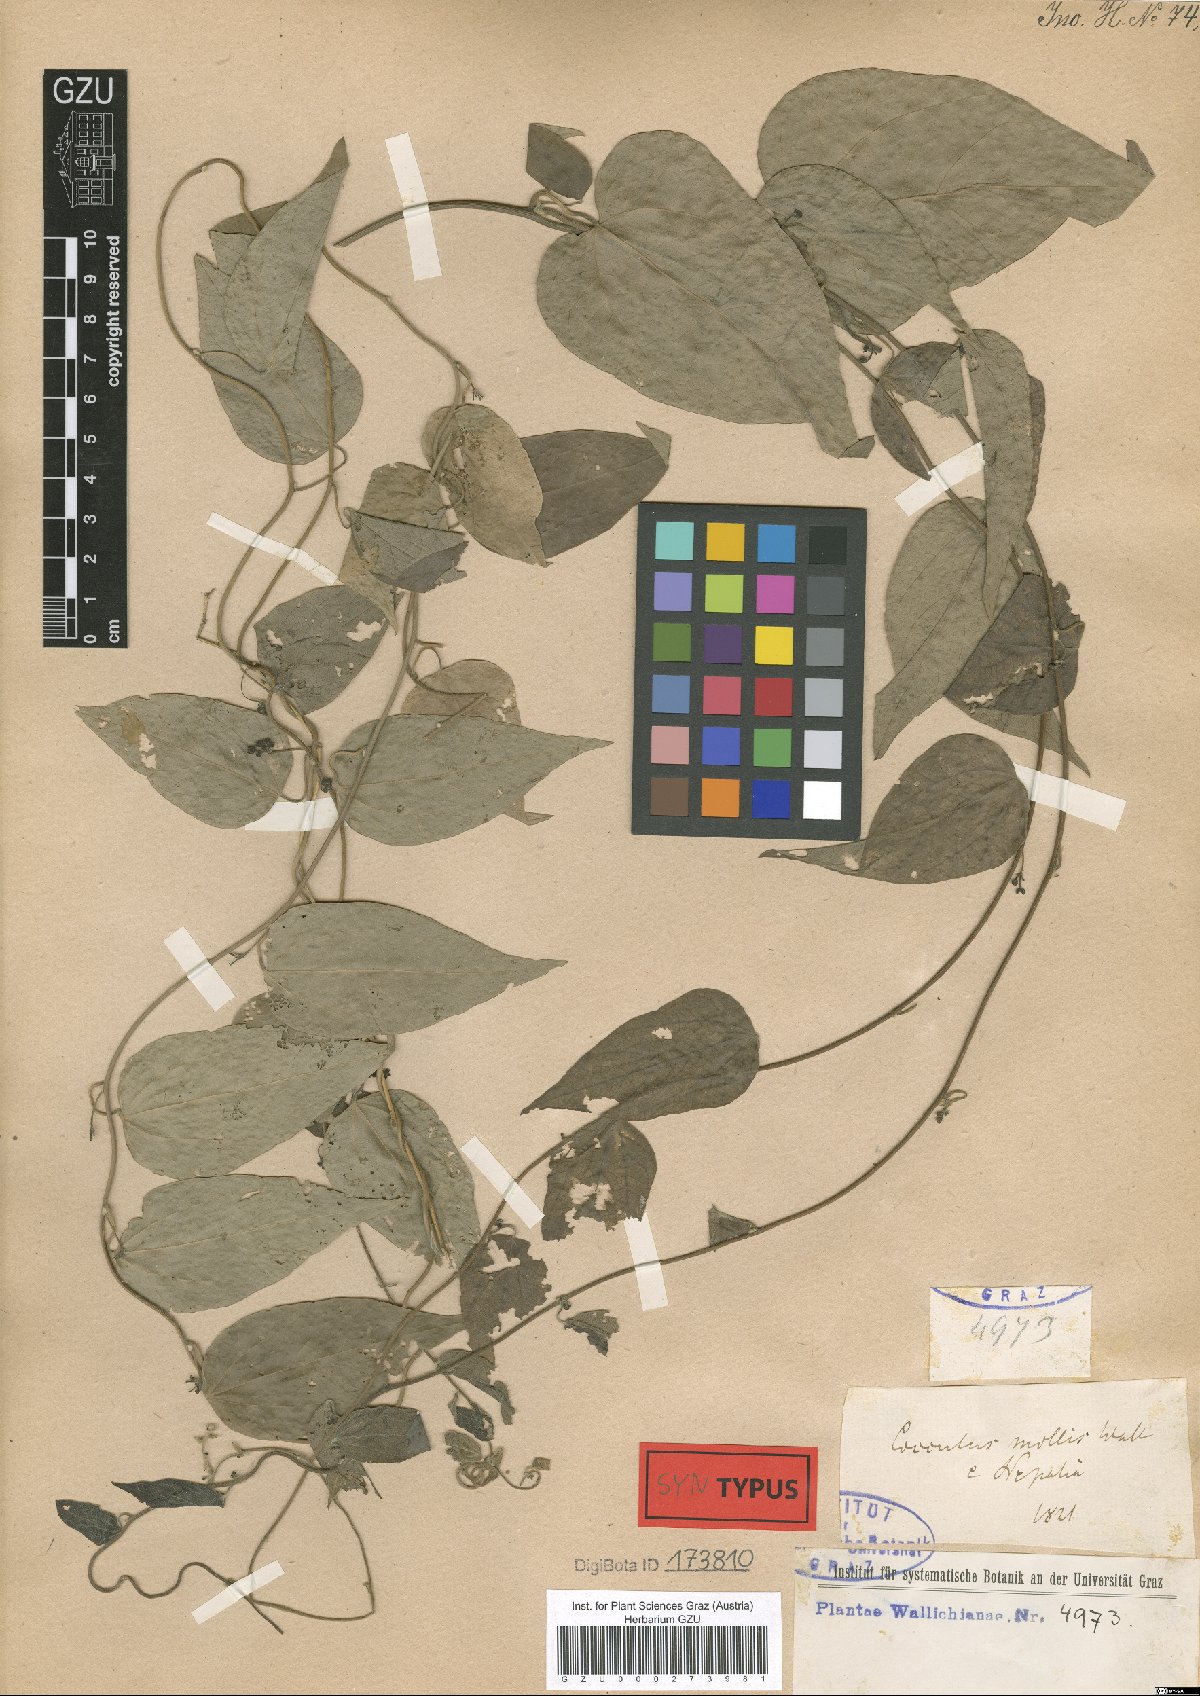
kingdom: Plantae
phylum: Tracheophyta
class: Magnoliopsida
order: Ranunculales
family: Menispermaceae
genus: Cocculus
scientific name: Cocculus orbiculatus
